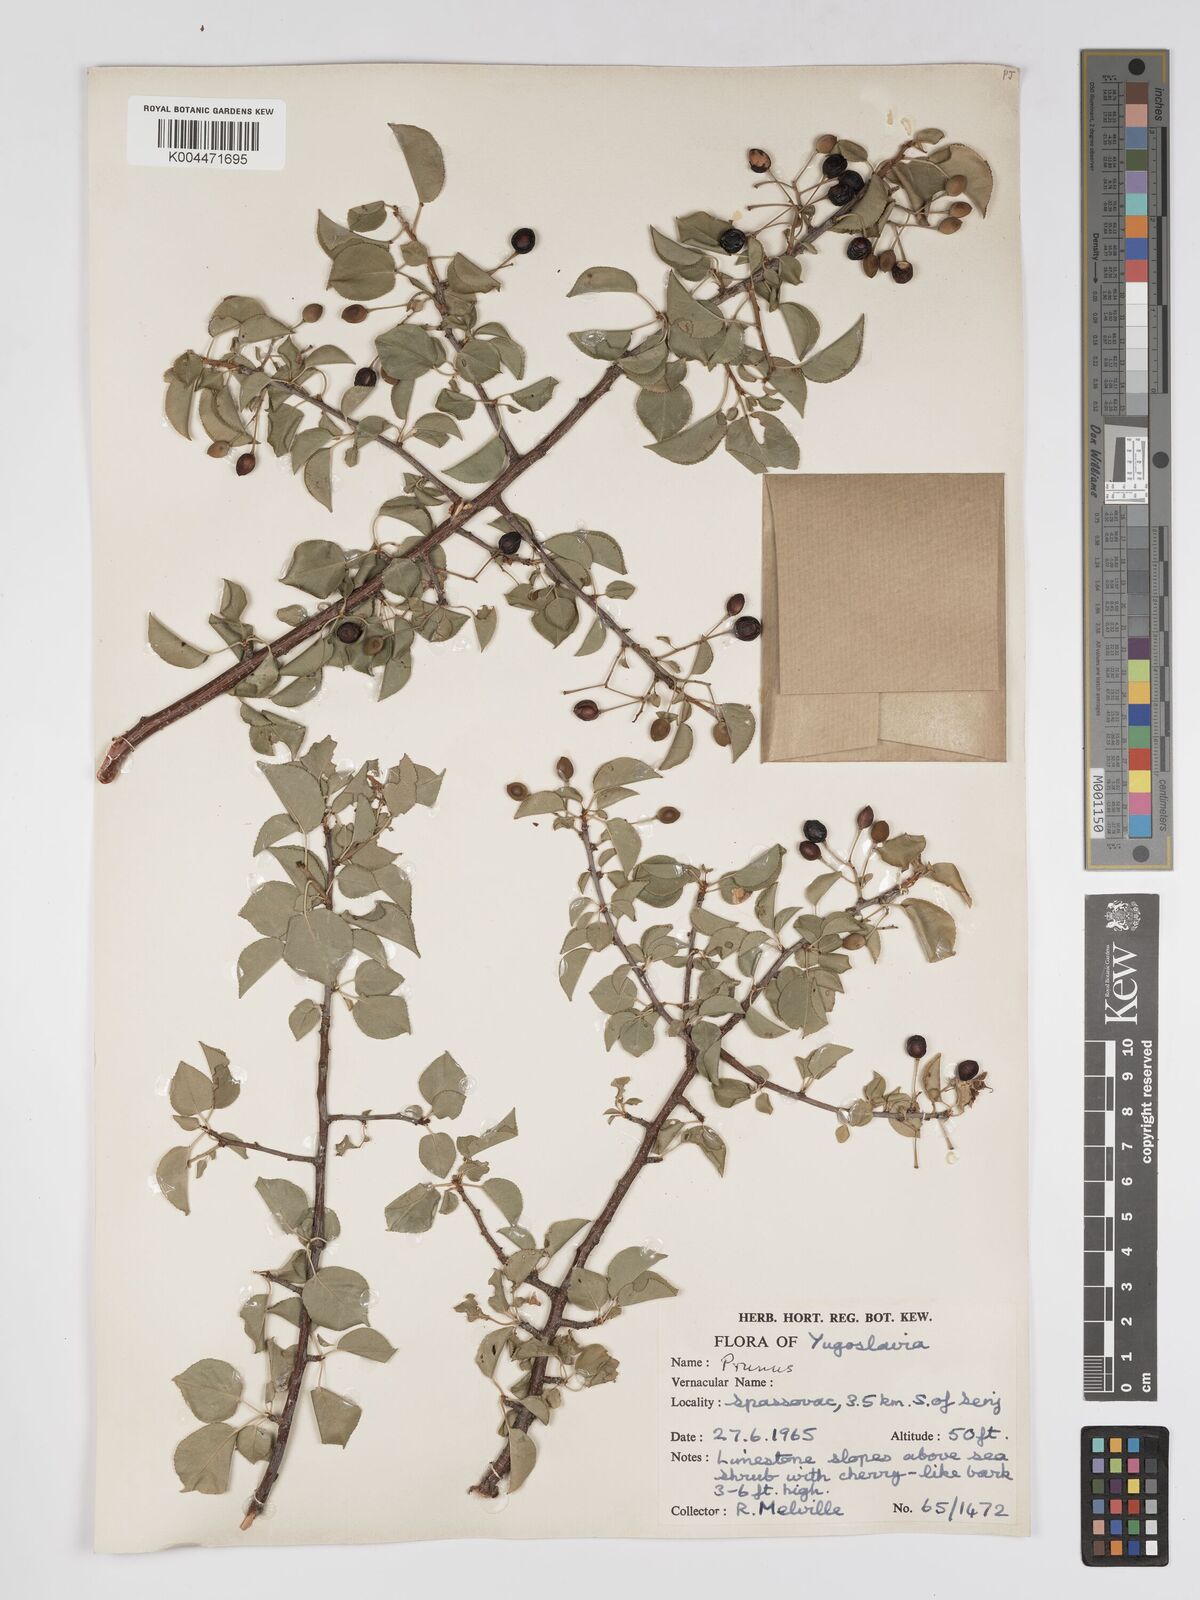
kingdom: Plantae
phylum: Tracheophyta
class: Magnoliopsida
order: Rosales
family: Rosaceae
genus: Prunus
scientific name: Prunus
